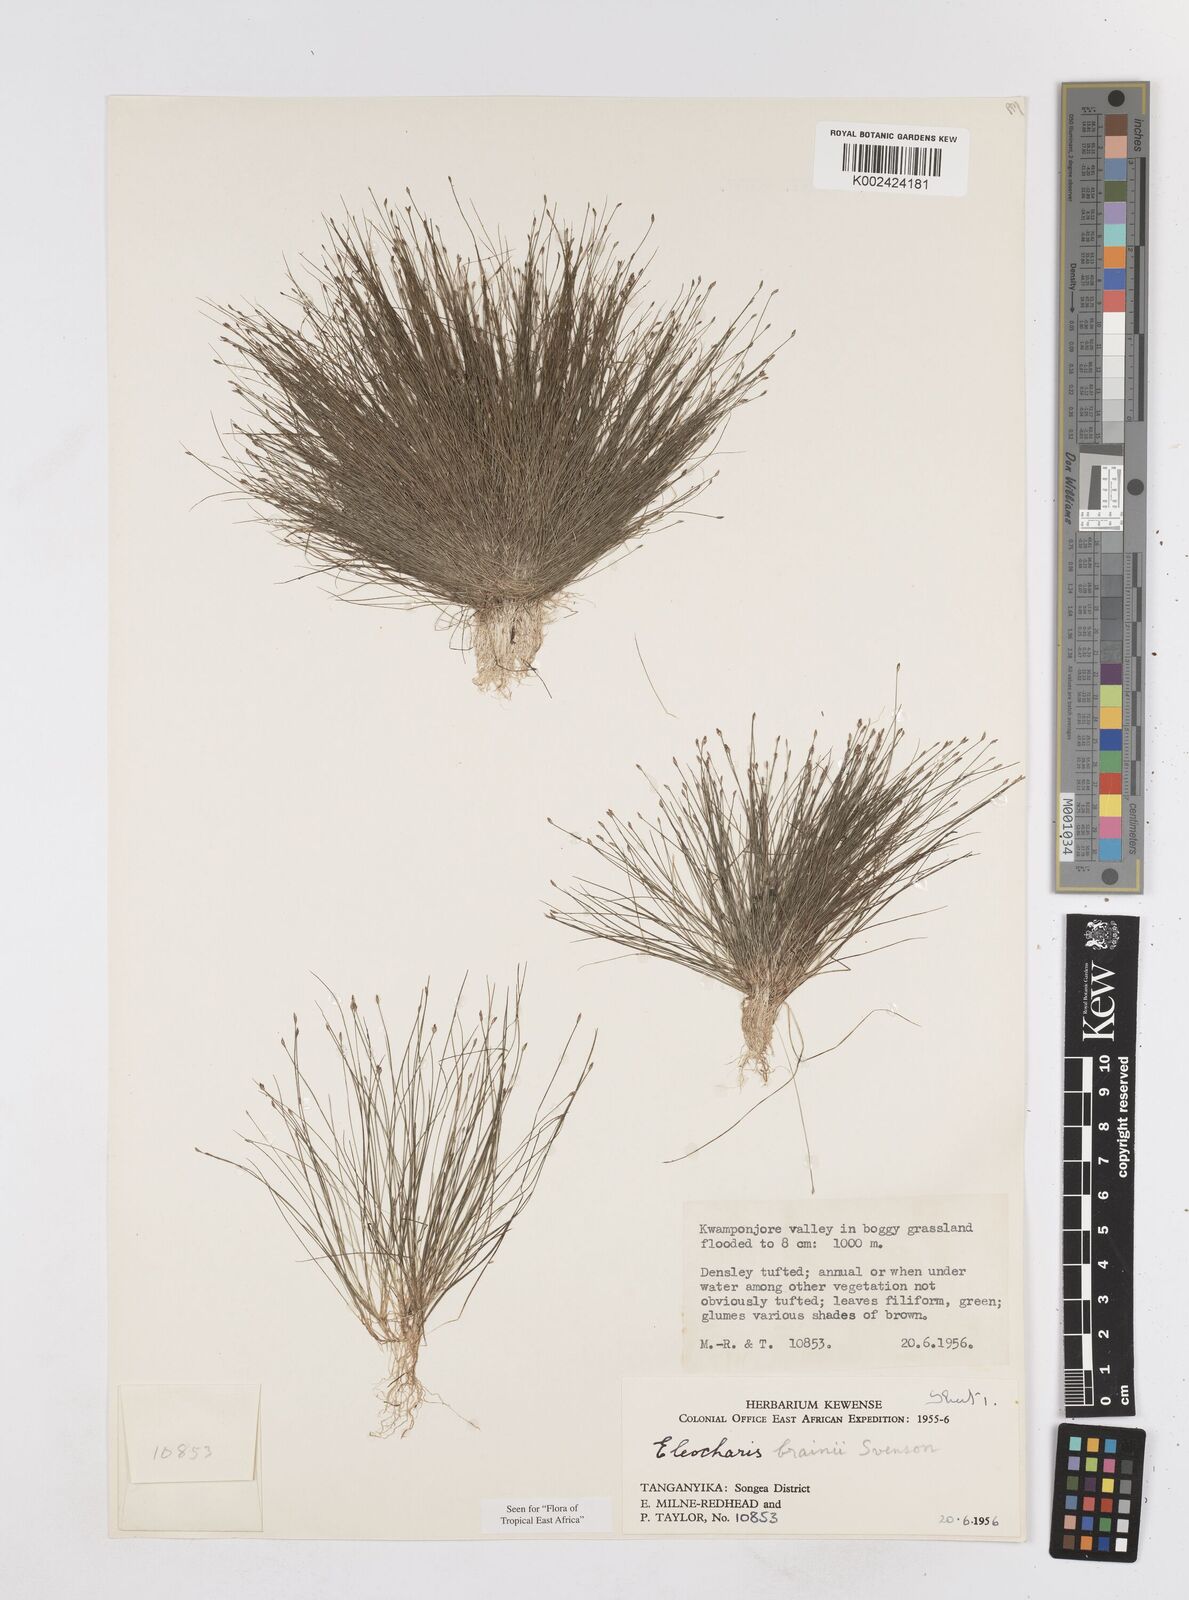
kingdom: Plantae
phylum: Tracheophyta
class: Liliopsida
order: Poales
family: Cyperaceae
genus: Eleocharis
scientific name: Eleocharis brainii
